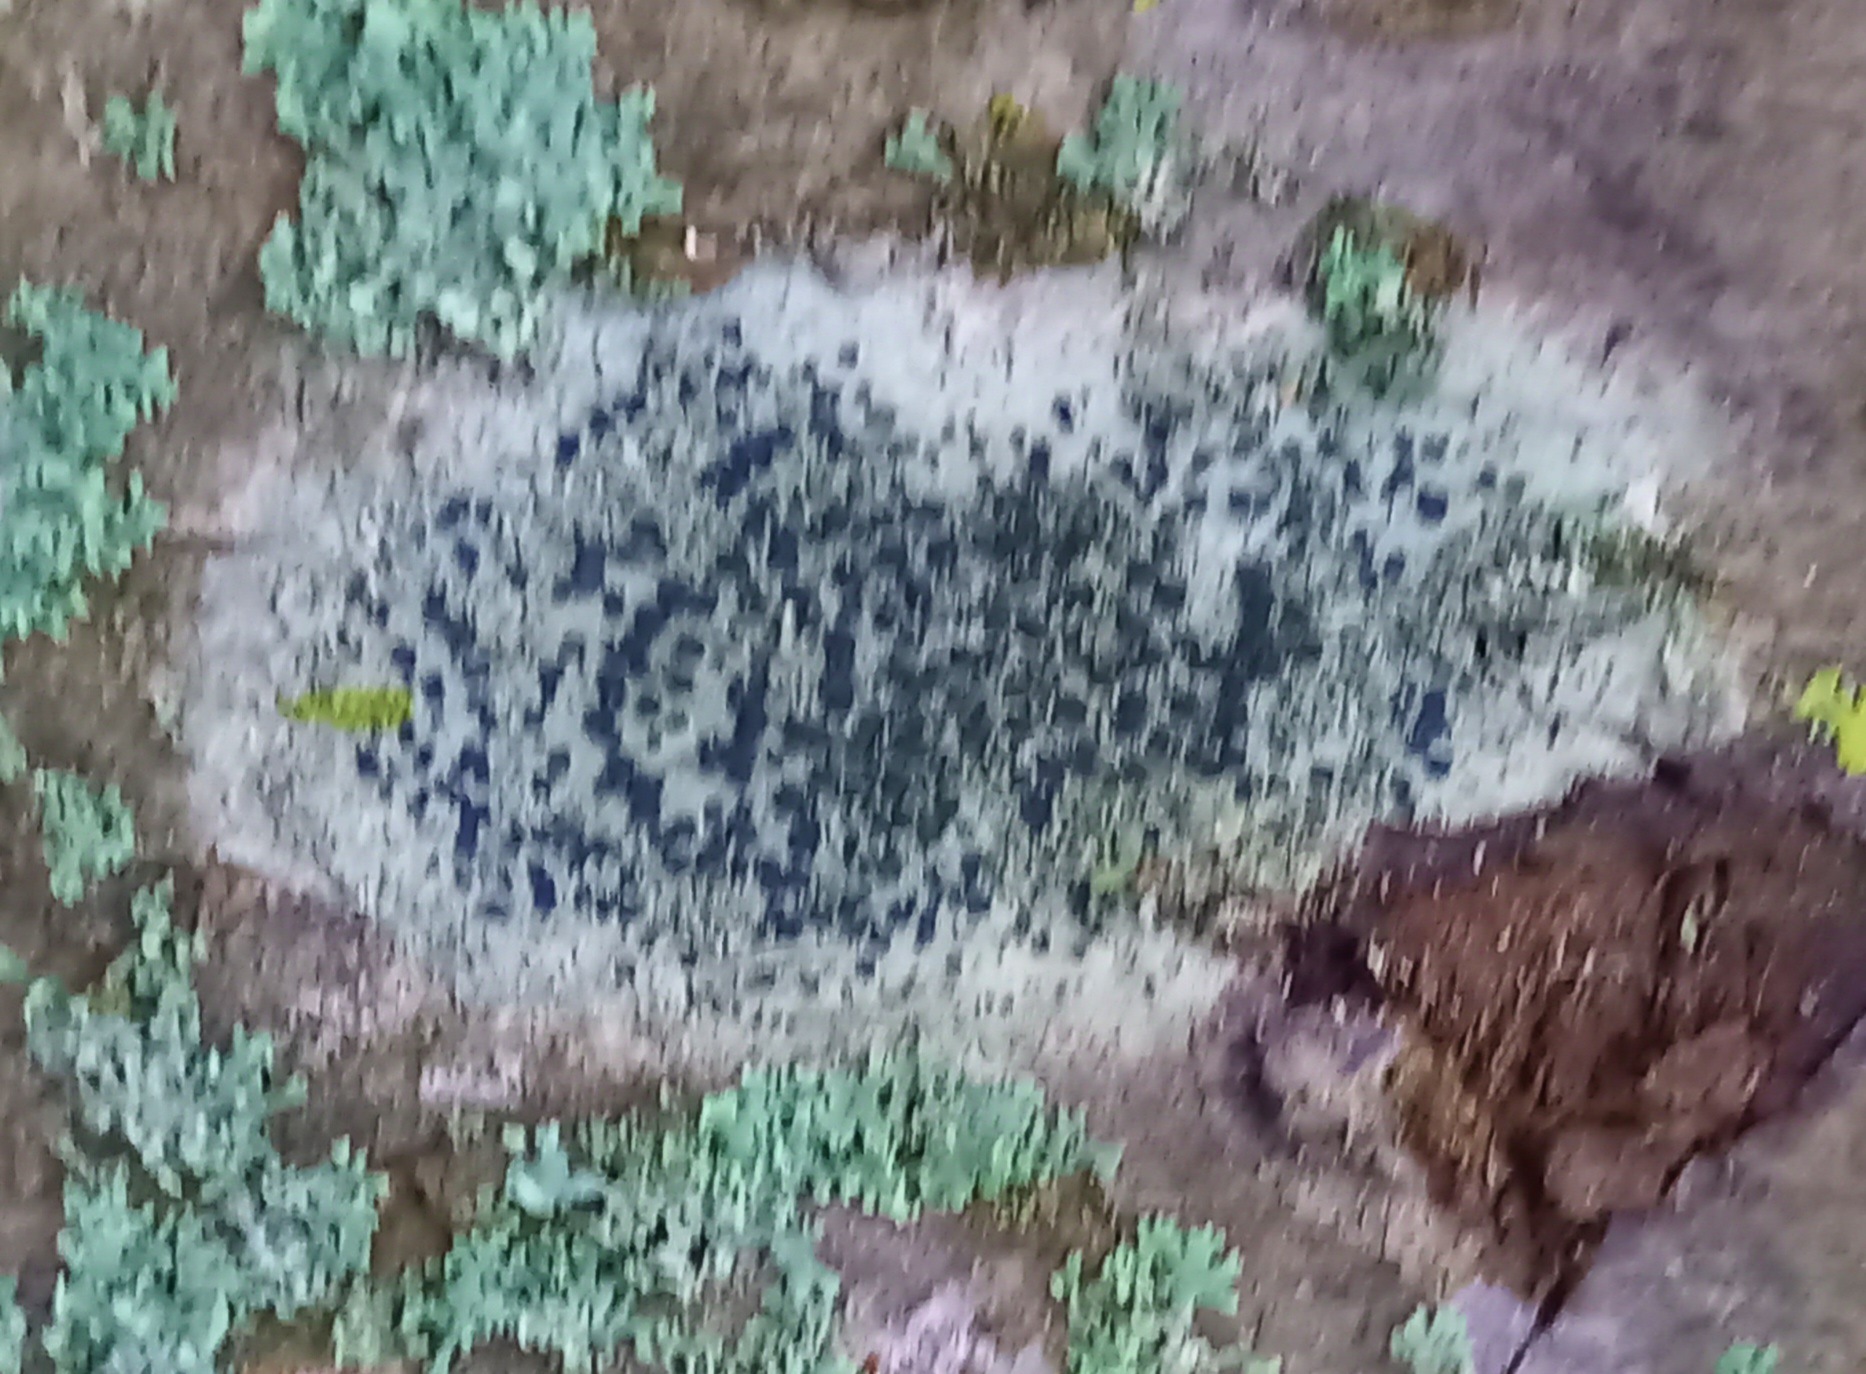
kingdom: Fungi
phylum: Ascomycota
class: Lecanoromycetes
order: Lecanorales
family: Lecanoraceae
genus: Lecidella
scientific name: Lecidella elaeochroma
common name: grågrøn skivelav
